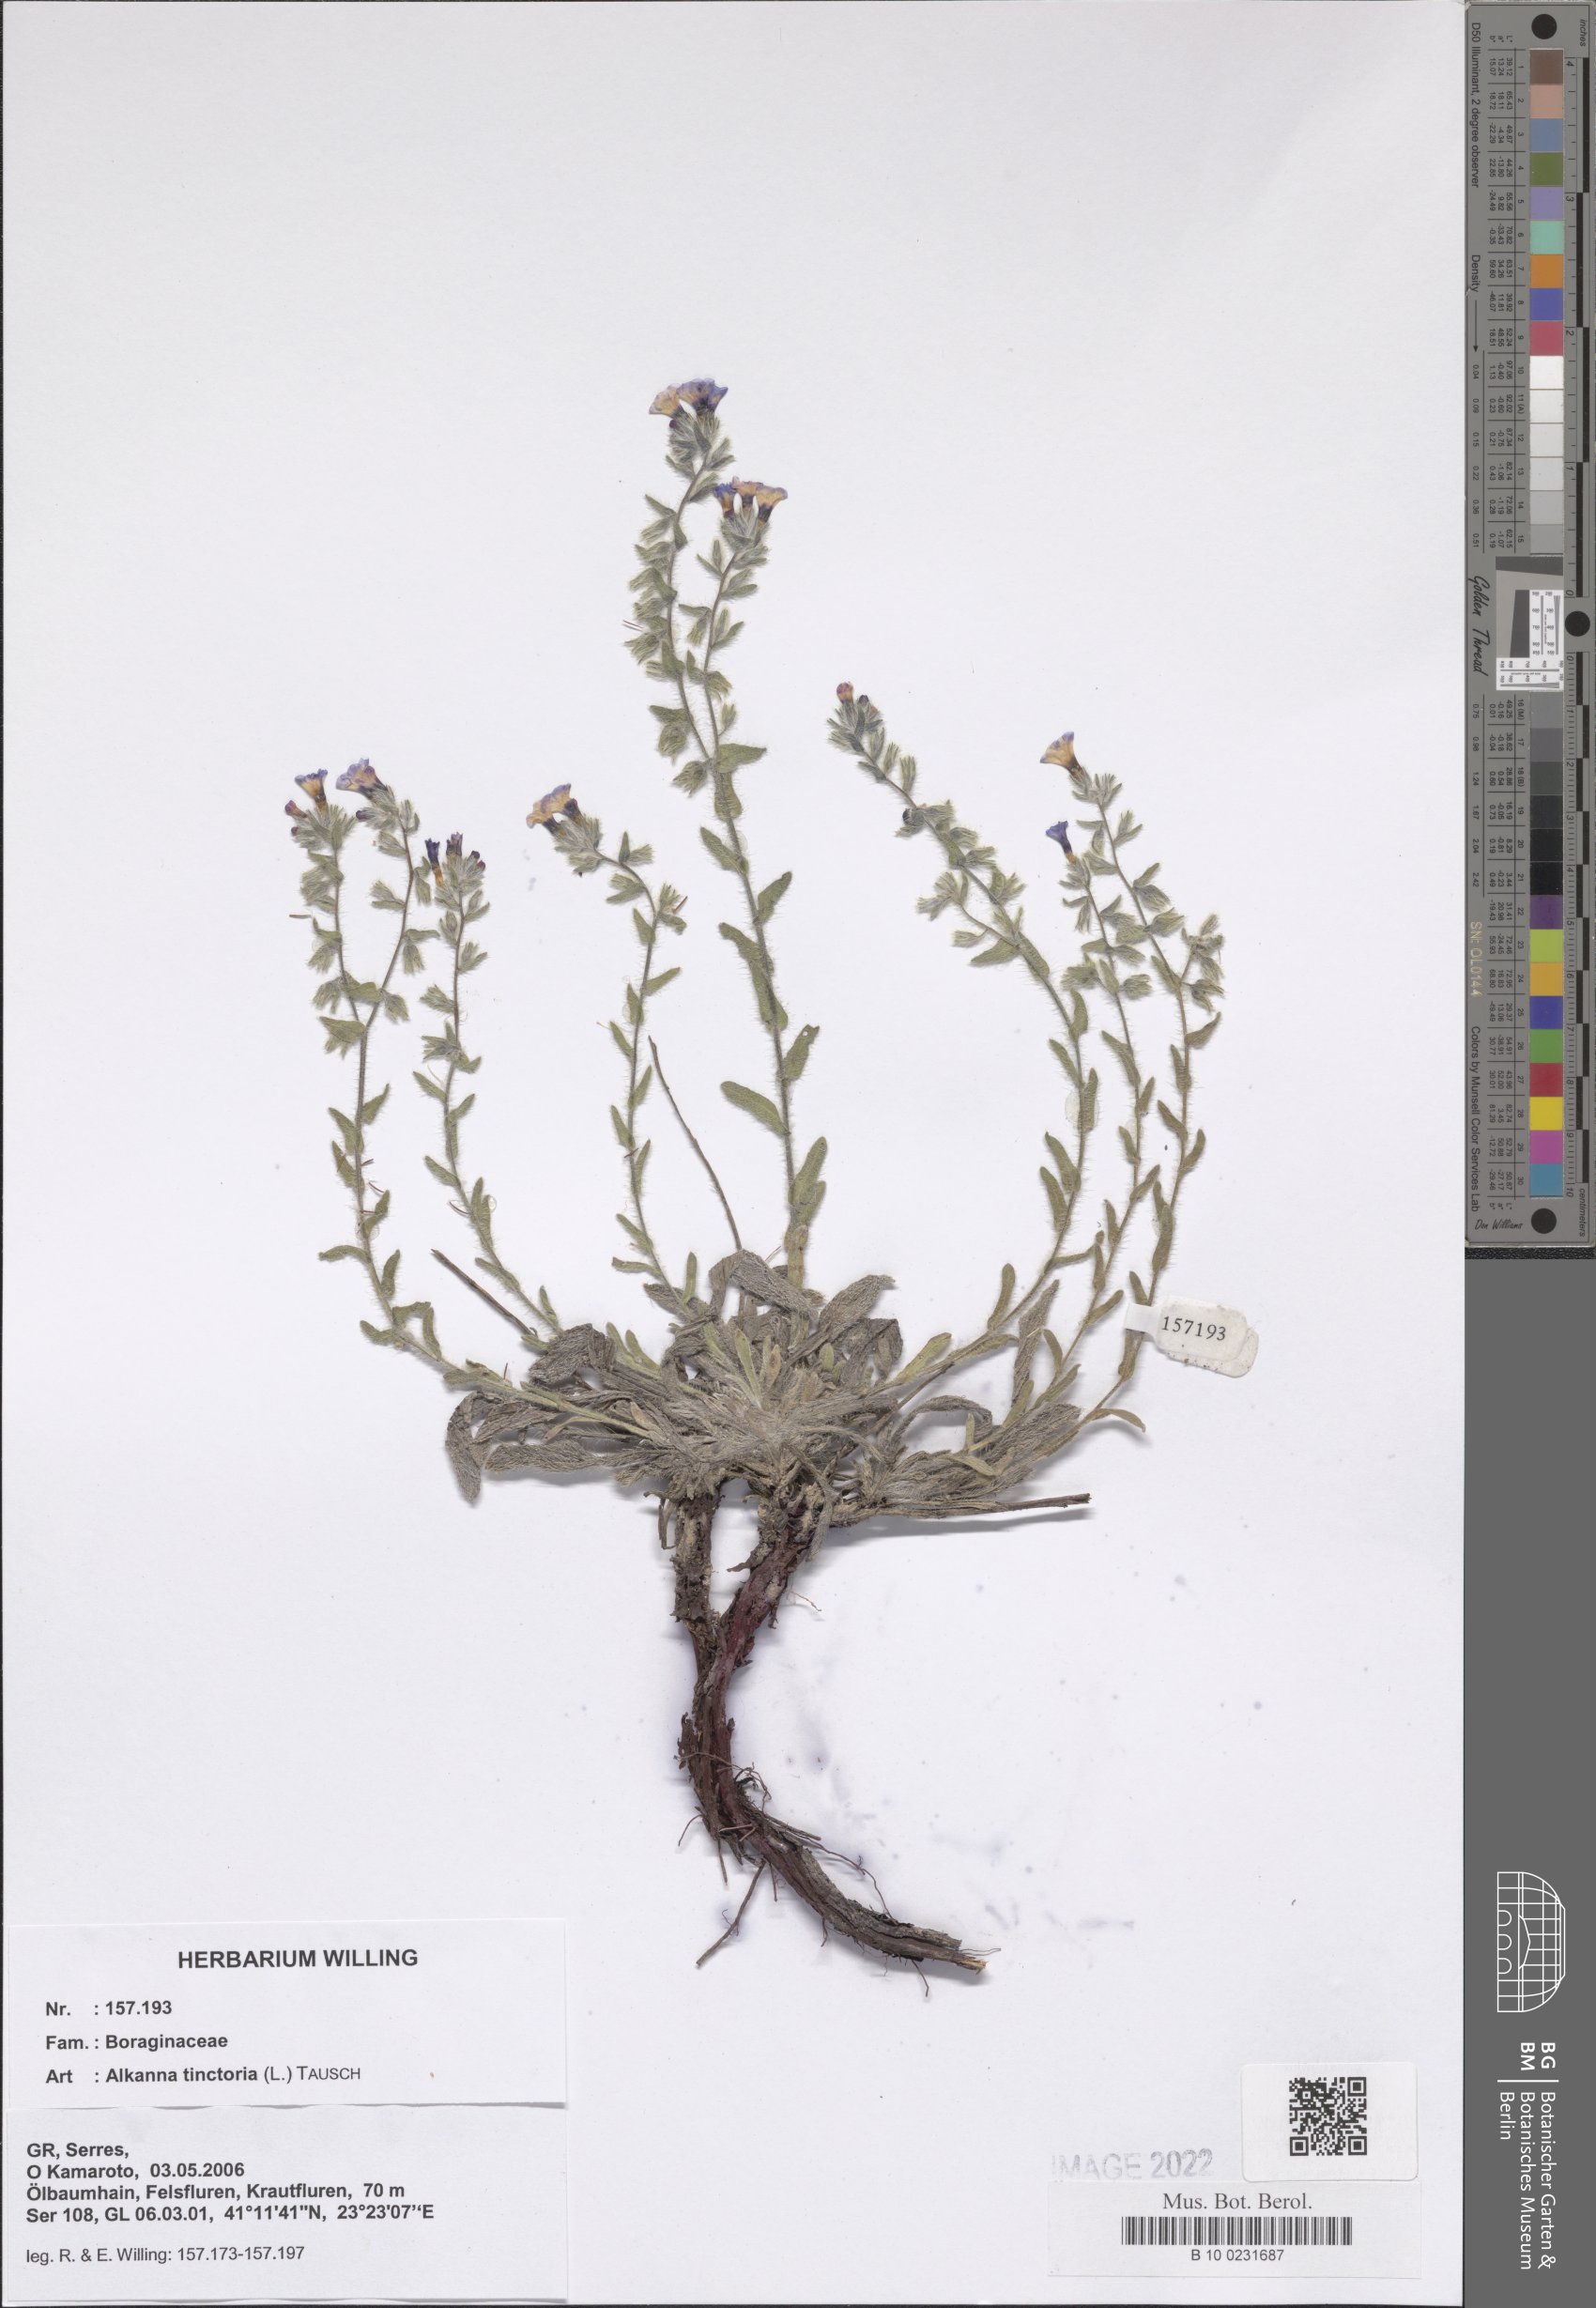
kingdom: Plantae
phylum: Tracheophyta
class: Magnoliopsida
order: Boraginales
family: Boraginaceae
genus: Alkanna
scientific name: Alkanna tinctoria
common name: Dyer's-alkanet
